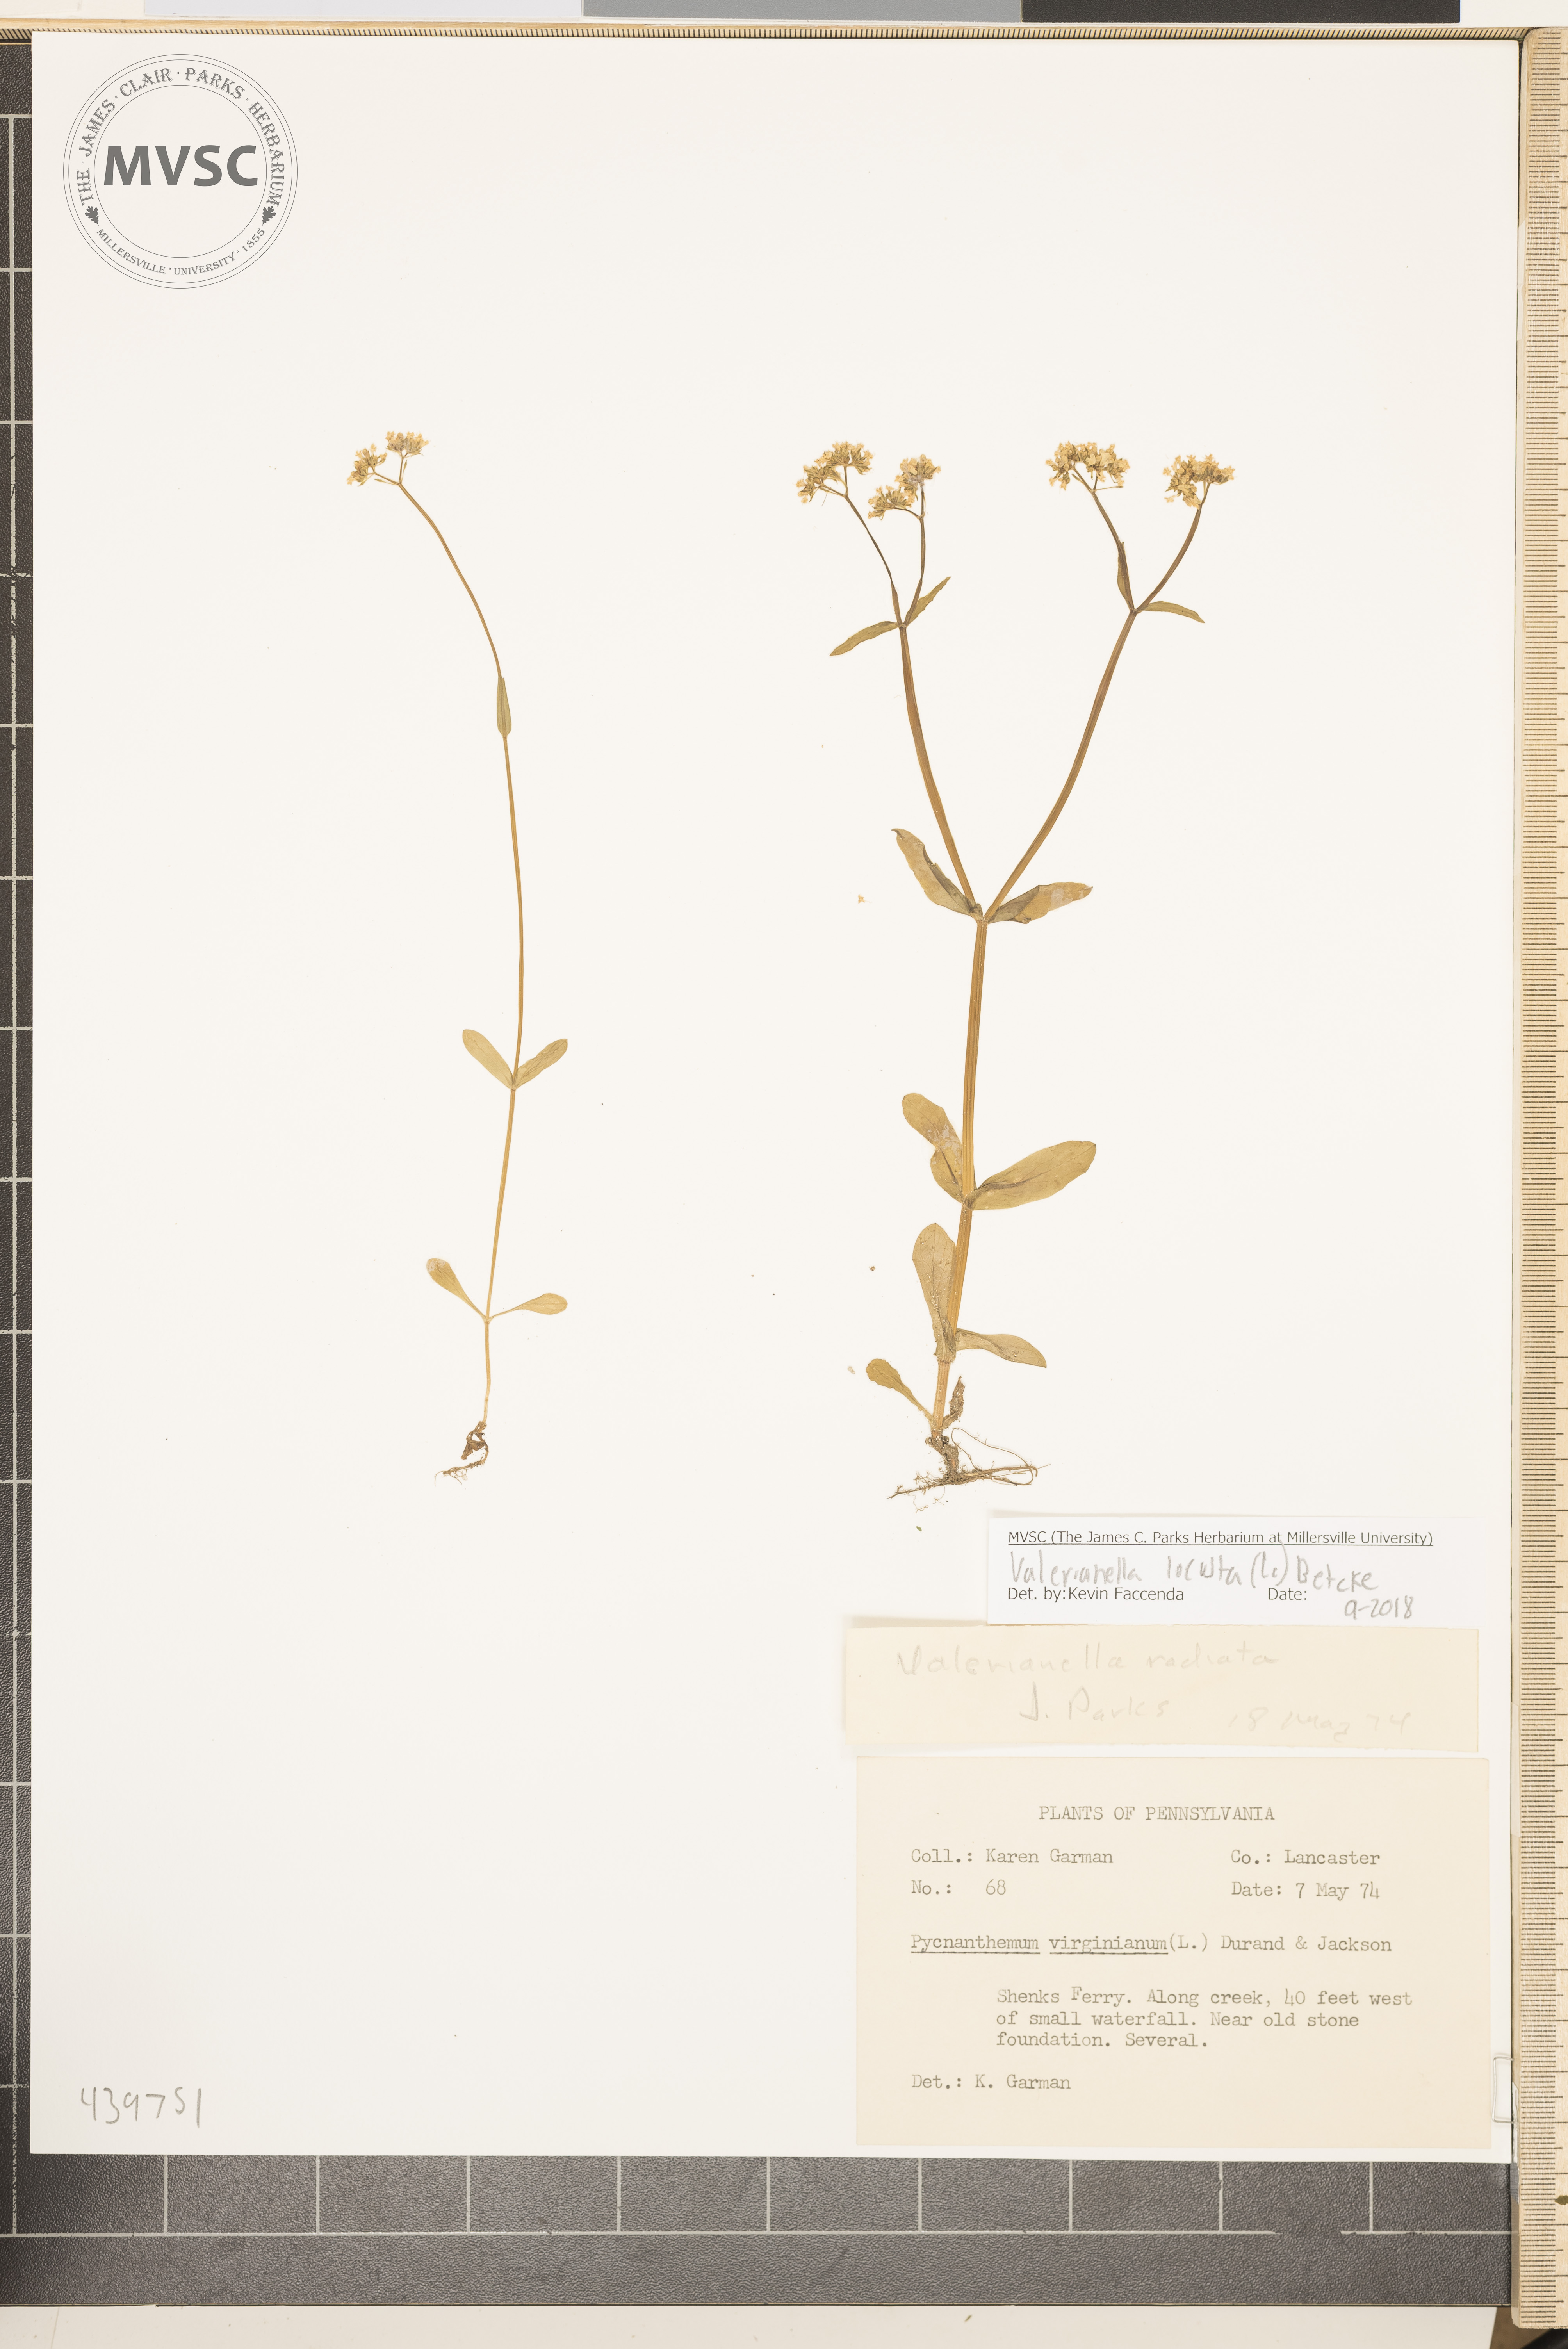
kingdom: Plantae
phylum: Tracheophyta
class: Magnoliopsida
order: Dipsacales
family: Caprifoliaceae
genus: Valerianella
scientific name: Valerianella locusta
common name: Common cornsalad
